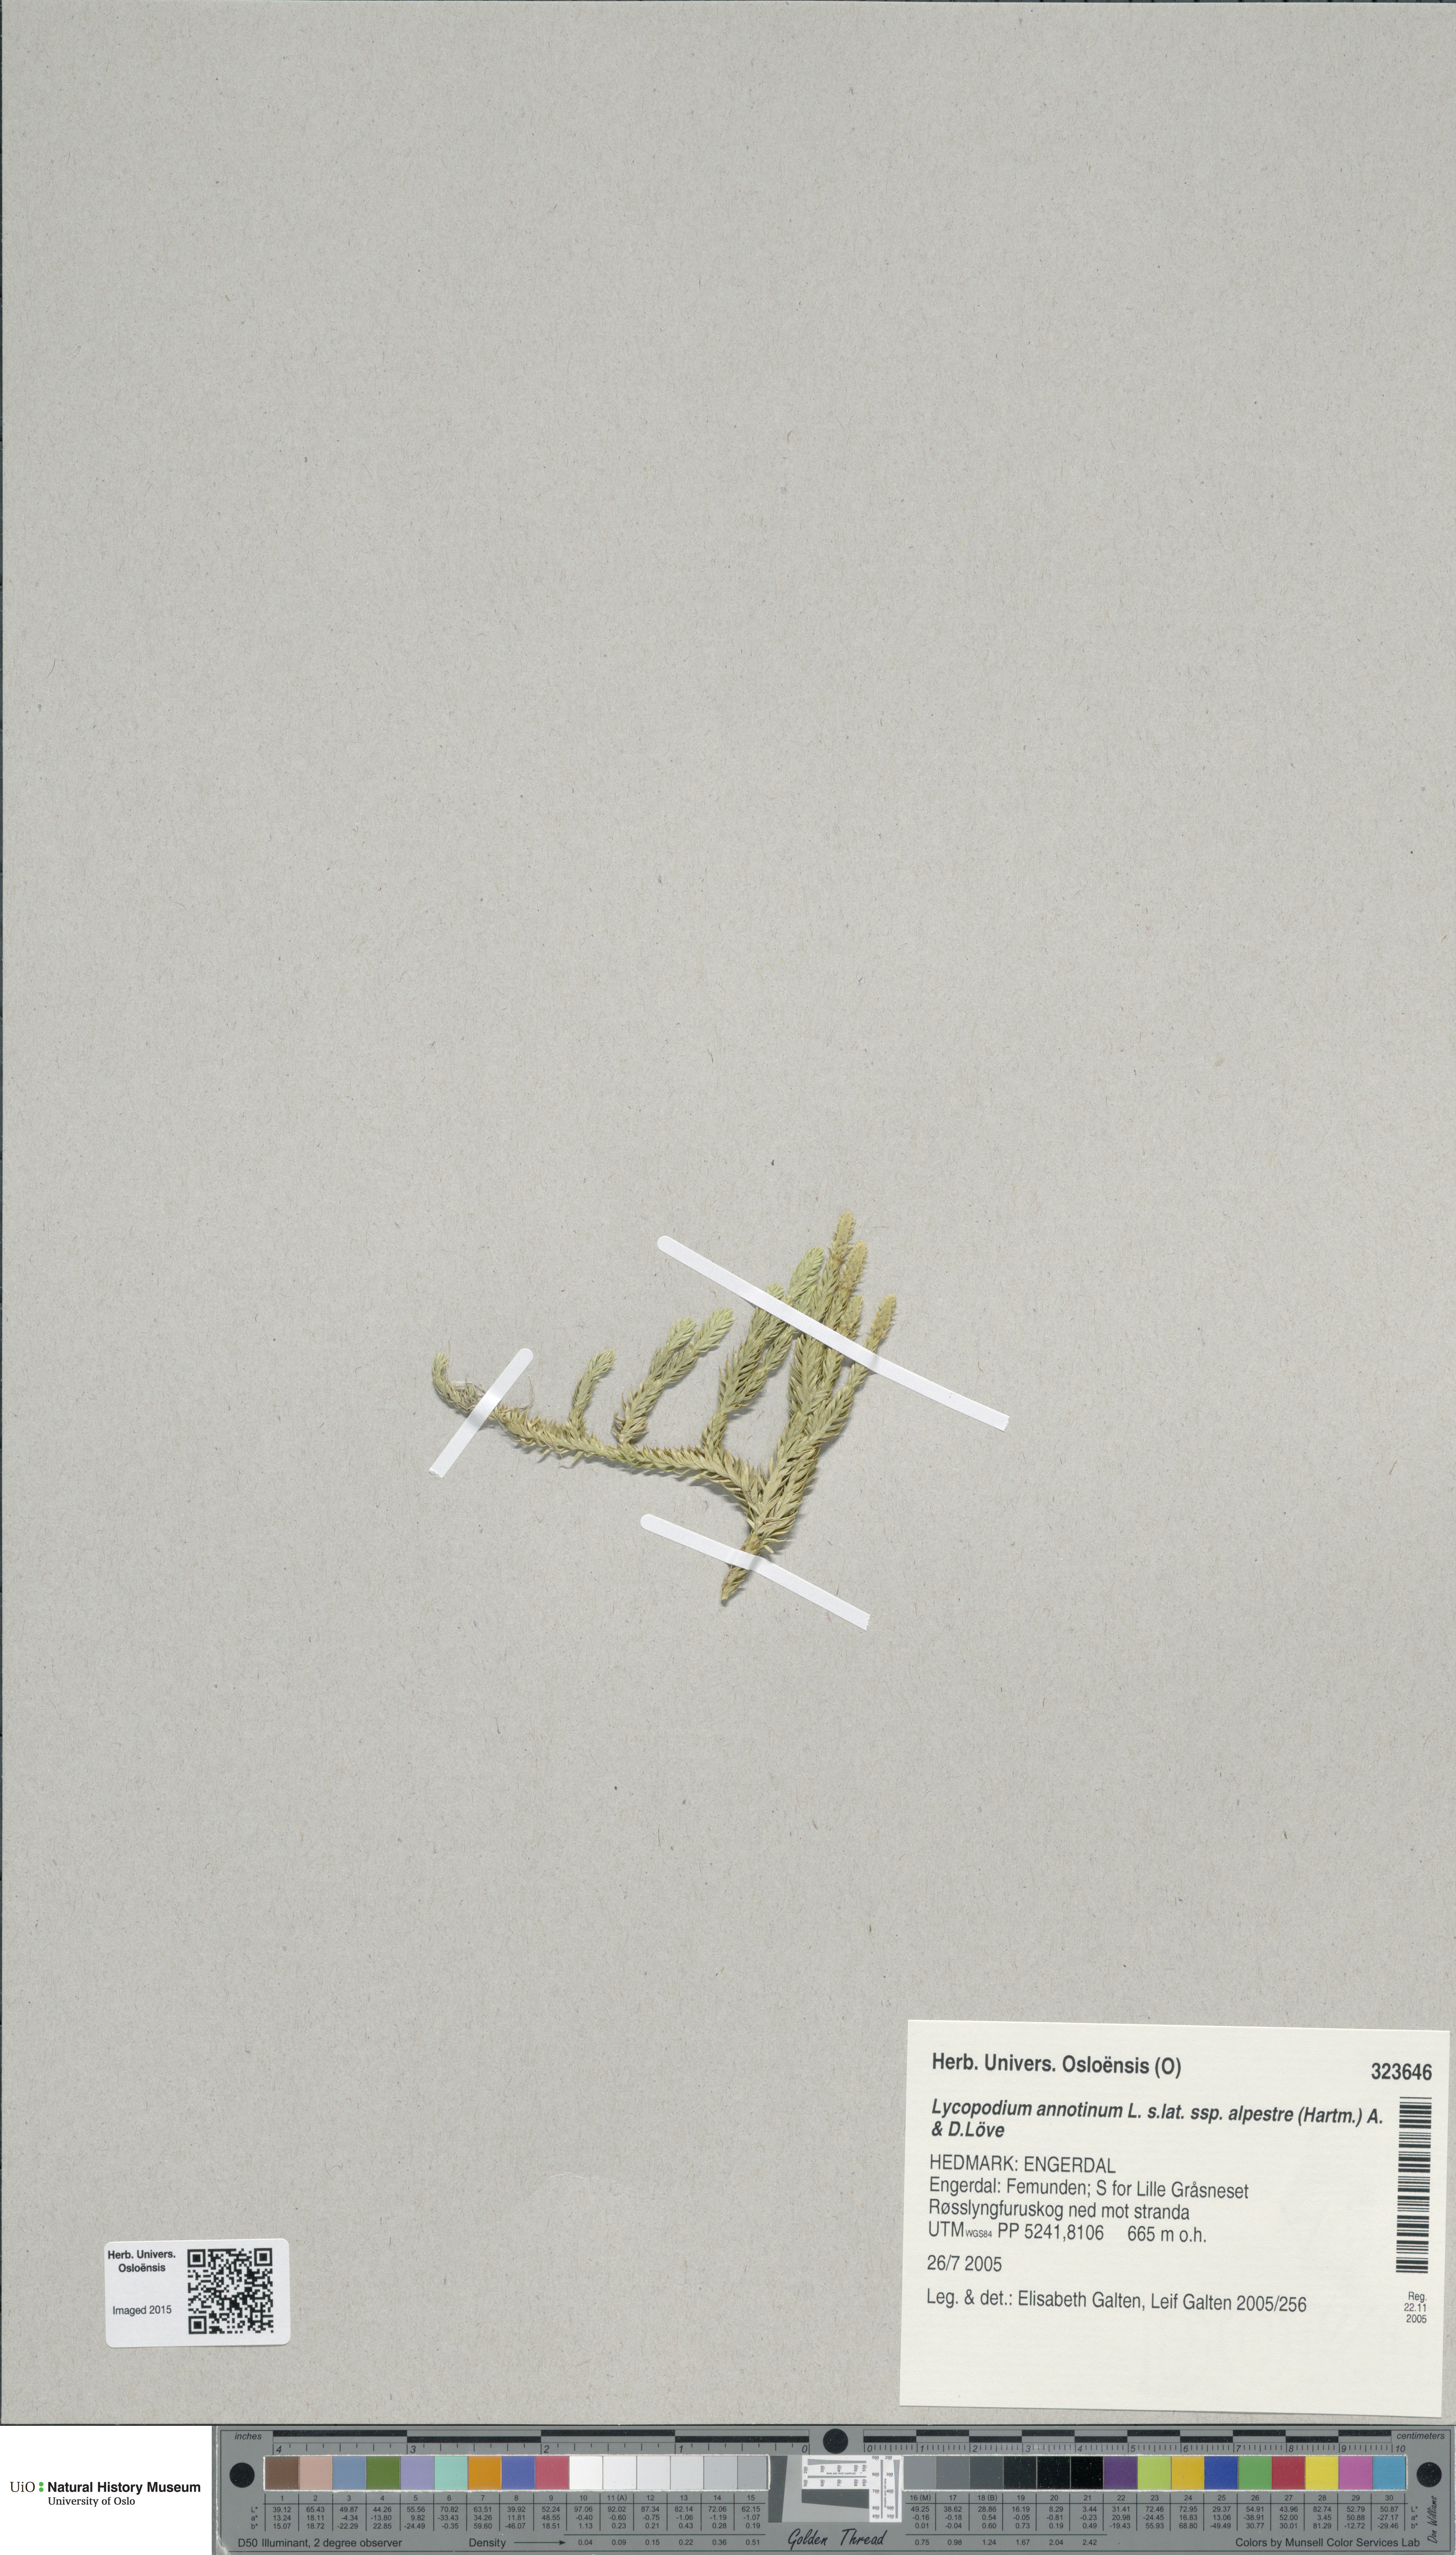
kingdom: Plantae
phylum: Tracheophyta
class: Lycopodiopsida
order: Lycopodiales
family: Lycopodiaceae
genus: Spinulum
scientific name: Spinulum annotinum
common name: Interrupted club-moss
